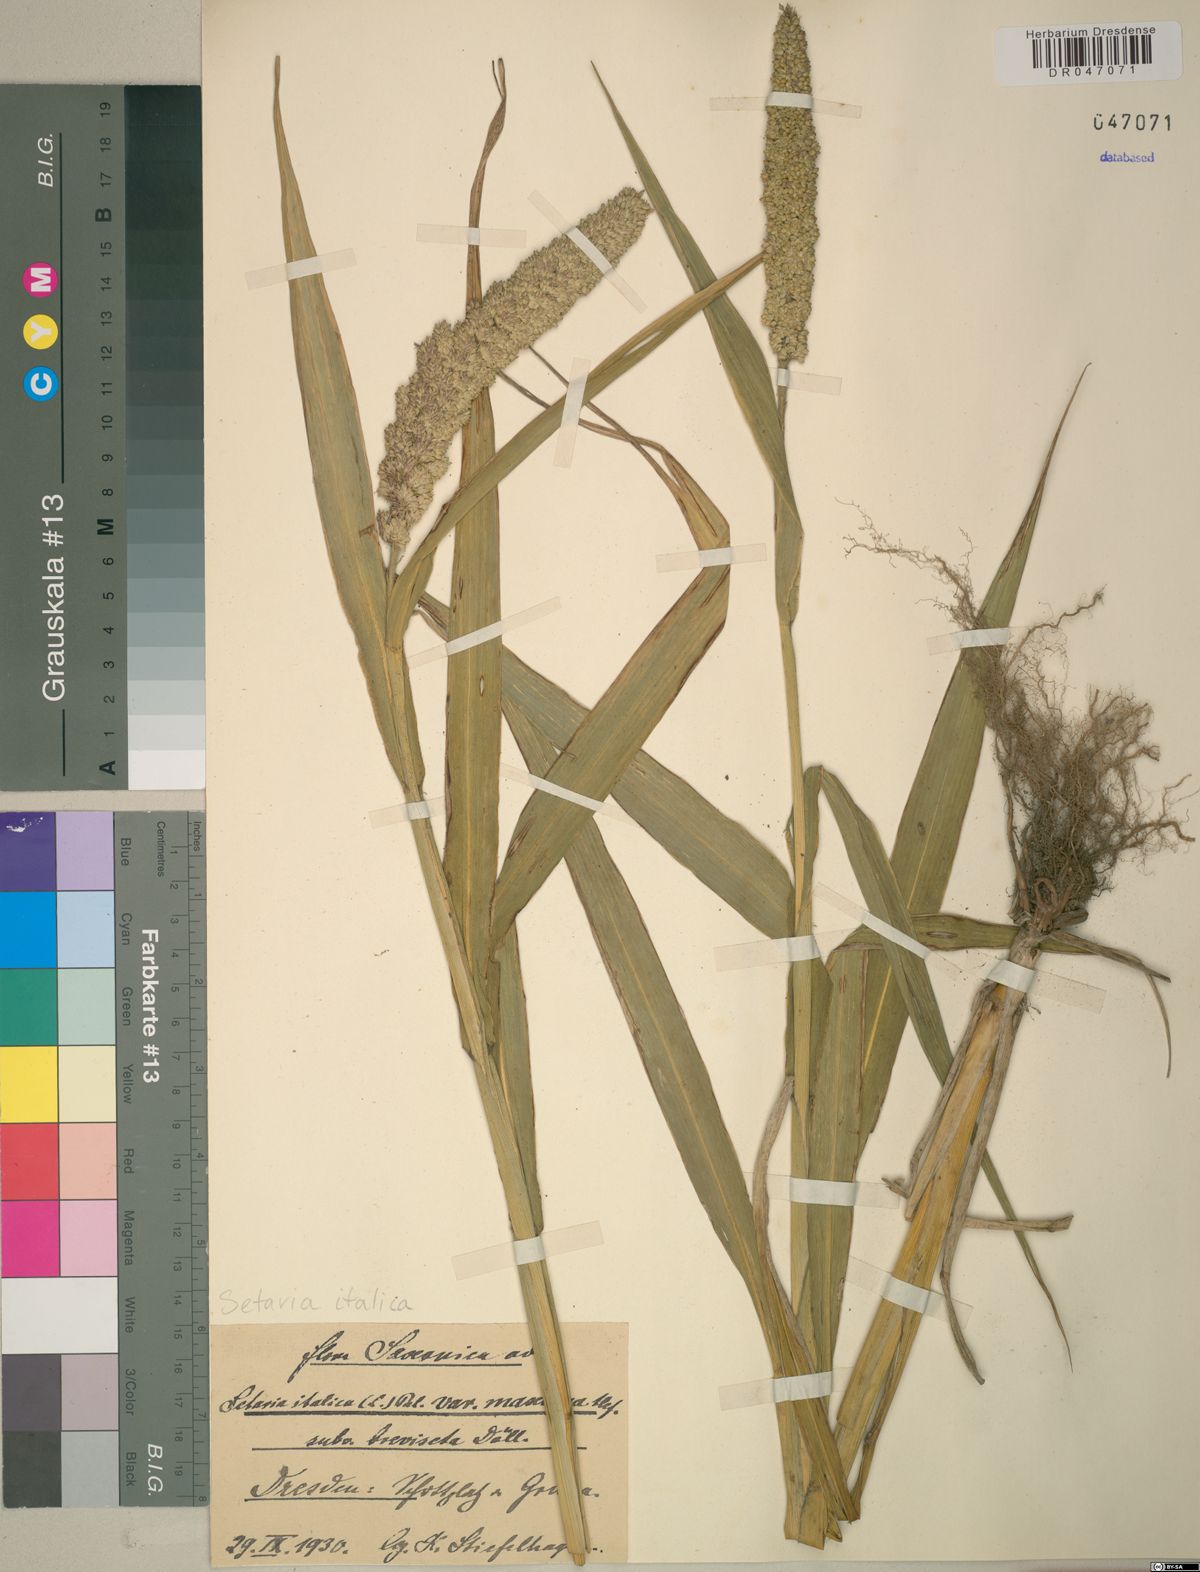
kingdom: Plantae
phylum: Tracheophyta
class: Liliopsida
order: Poales
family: Poaceae
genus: Setaria
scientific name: Setaria italica
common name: Foxtail bristle-grass
